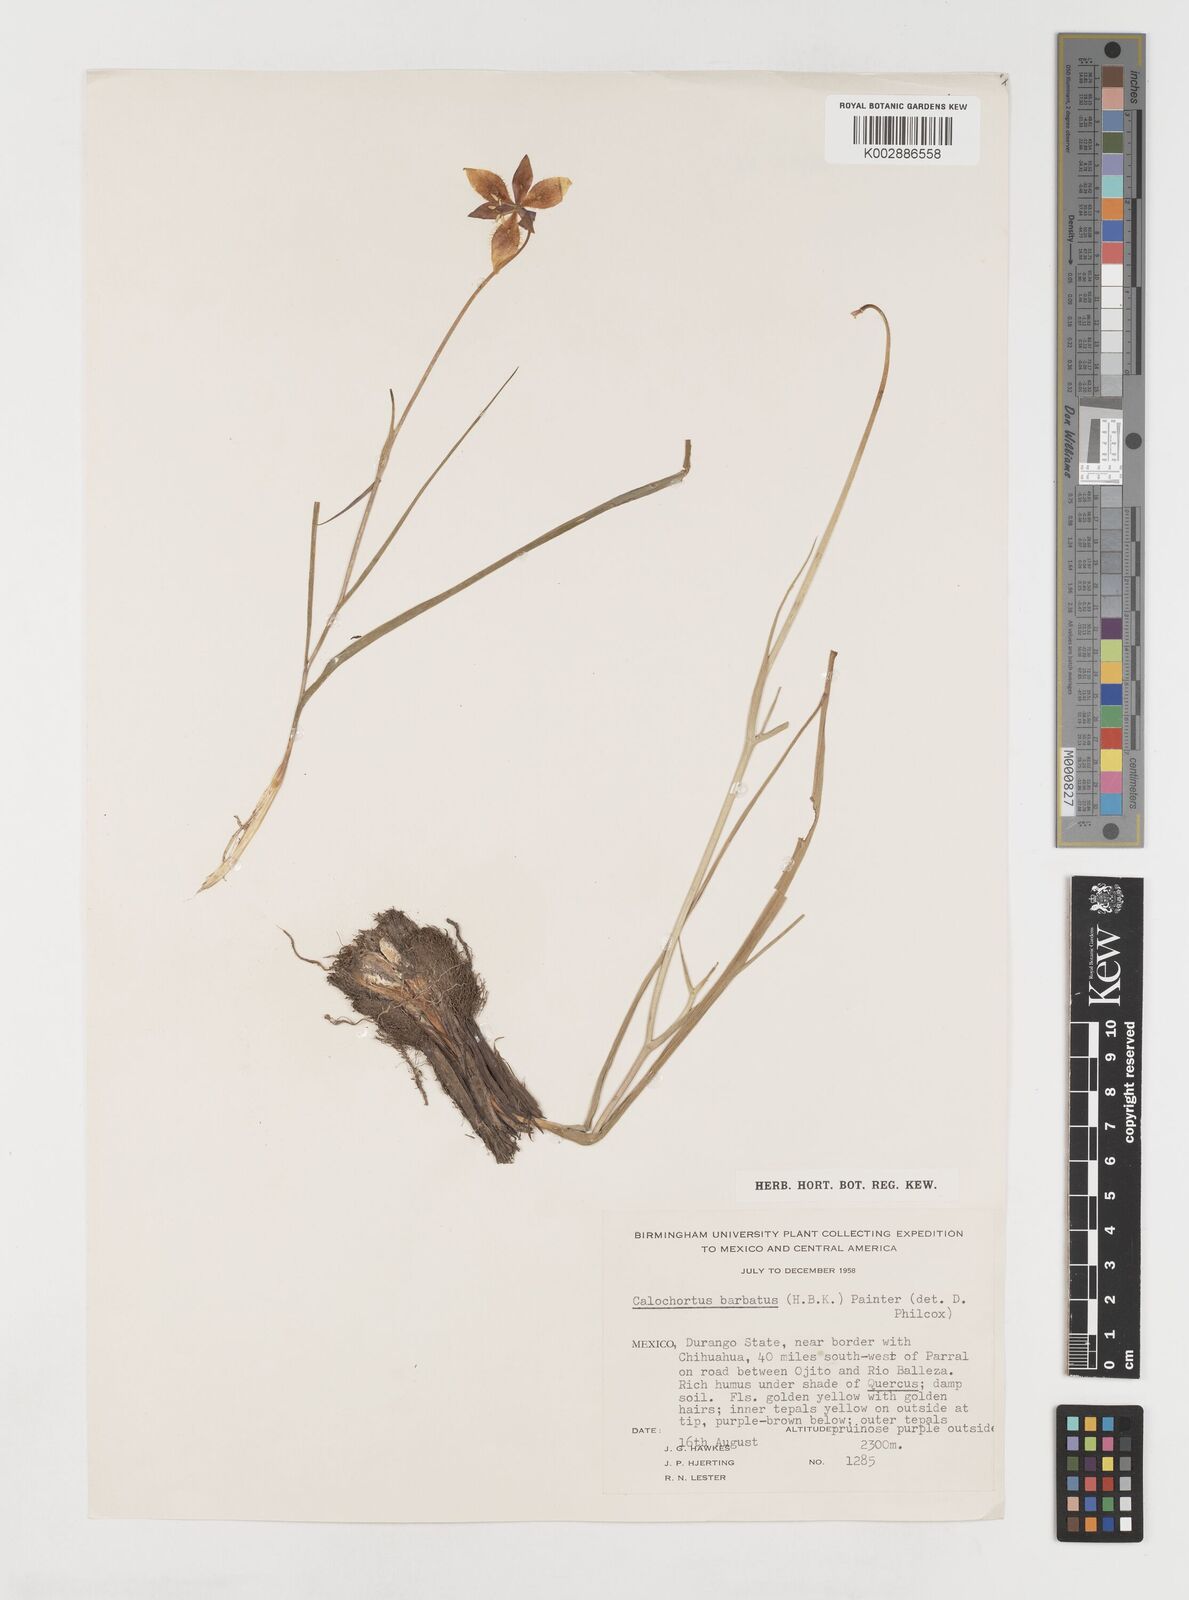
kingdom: Plantae
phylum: Tracheophyta
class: Liliopsida
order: Liliales
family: Liliaceae
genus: Calochortus
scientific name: Calochortus barbatus
